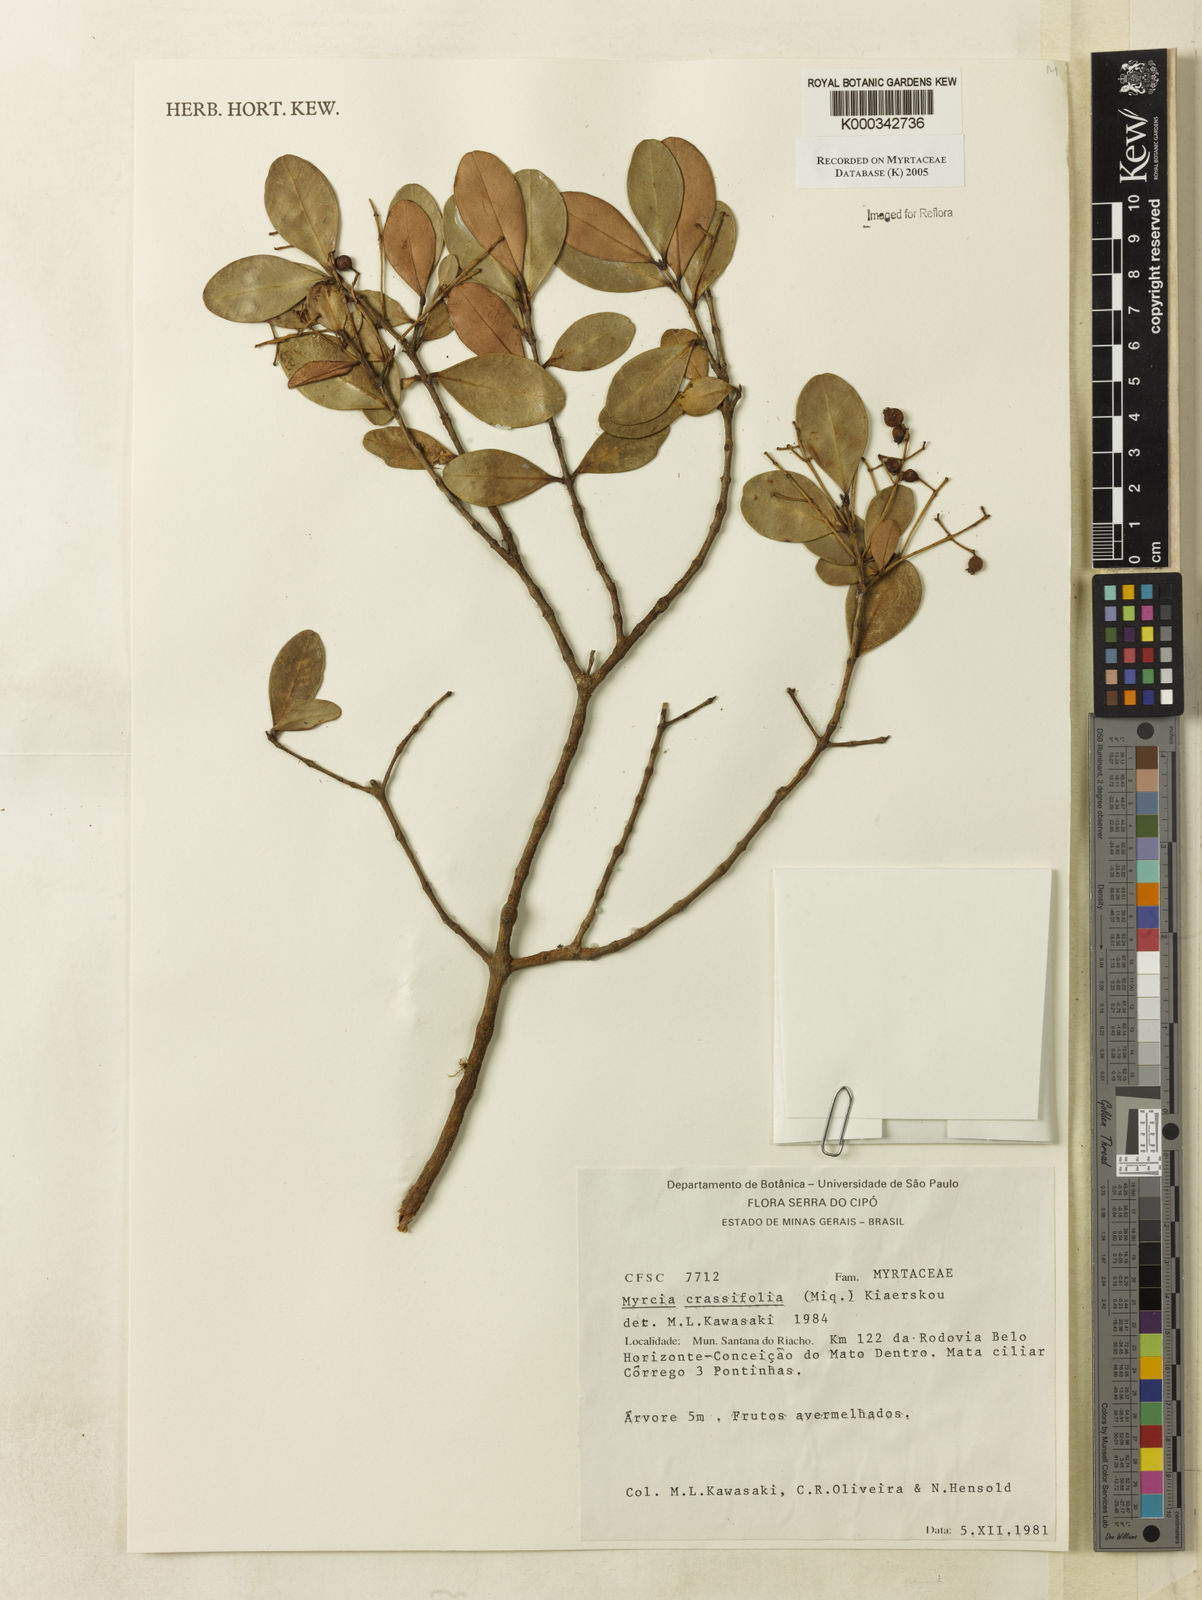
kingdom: Plantae
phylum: Tracheophyta
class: Magnoliopsida
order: Myrtales
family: Myrtaceae
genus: Myrcia
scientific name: Myrcia obovata
